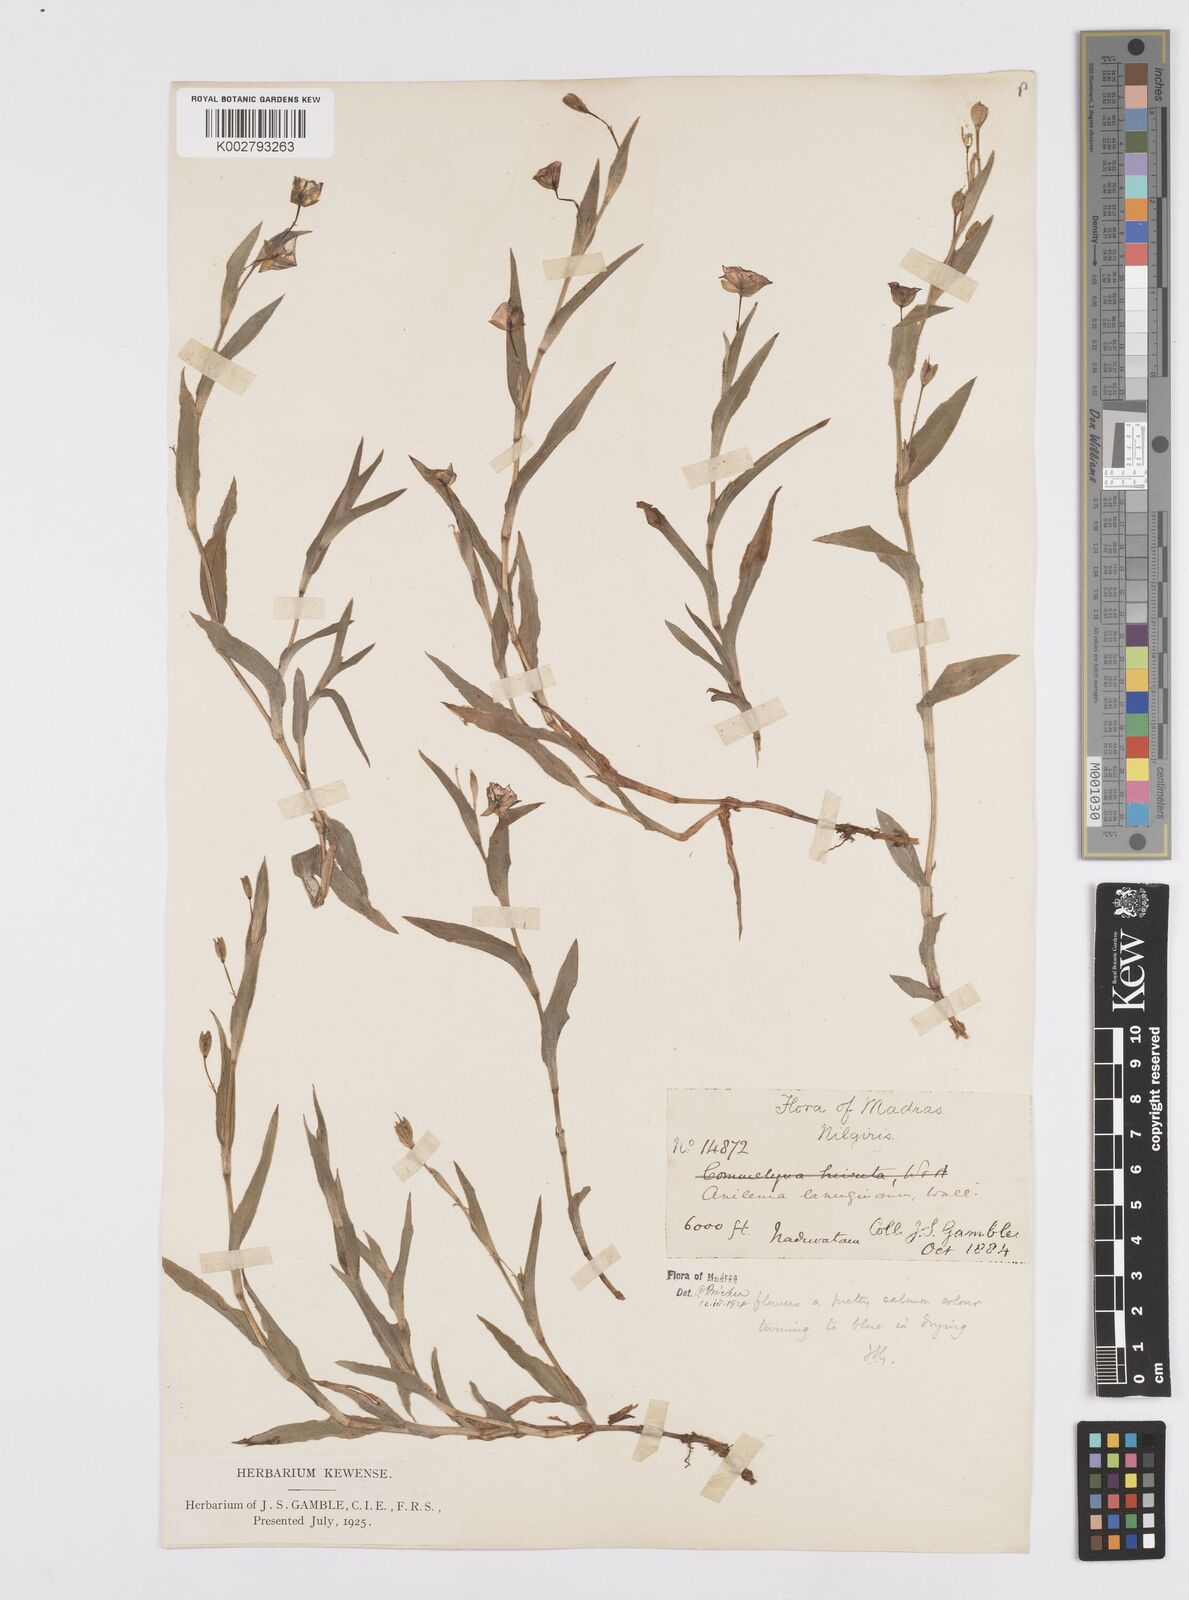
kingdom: Plantae
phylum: Tracheophyta
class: Liliopsida
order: Commelinales
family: Commelinaceae
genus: Murdannia
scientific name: Murdannia lanuginosa
